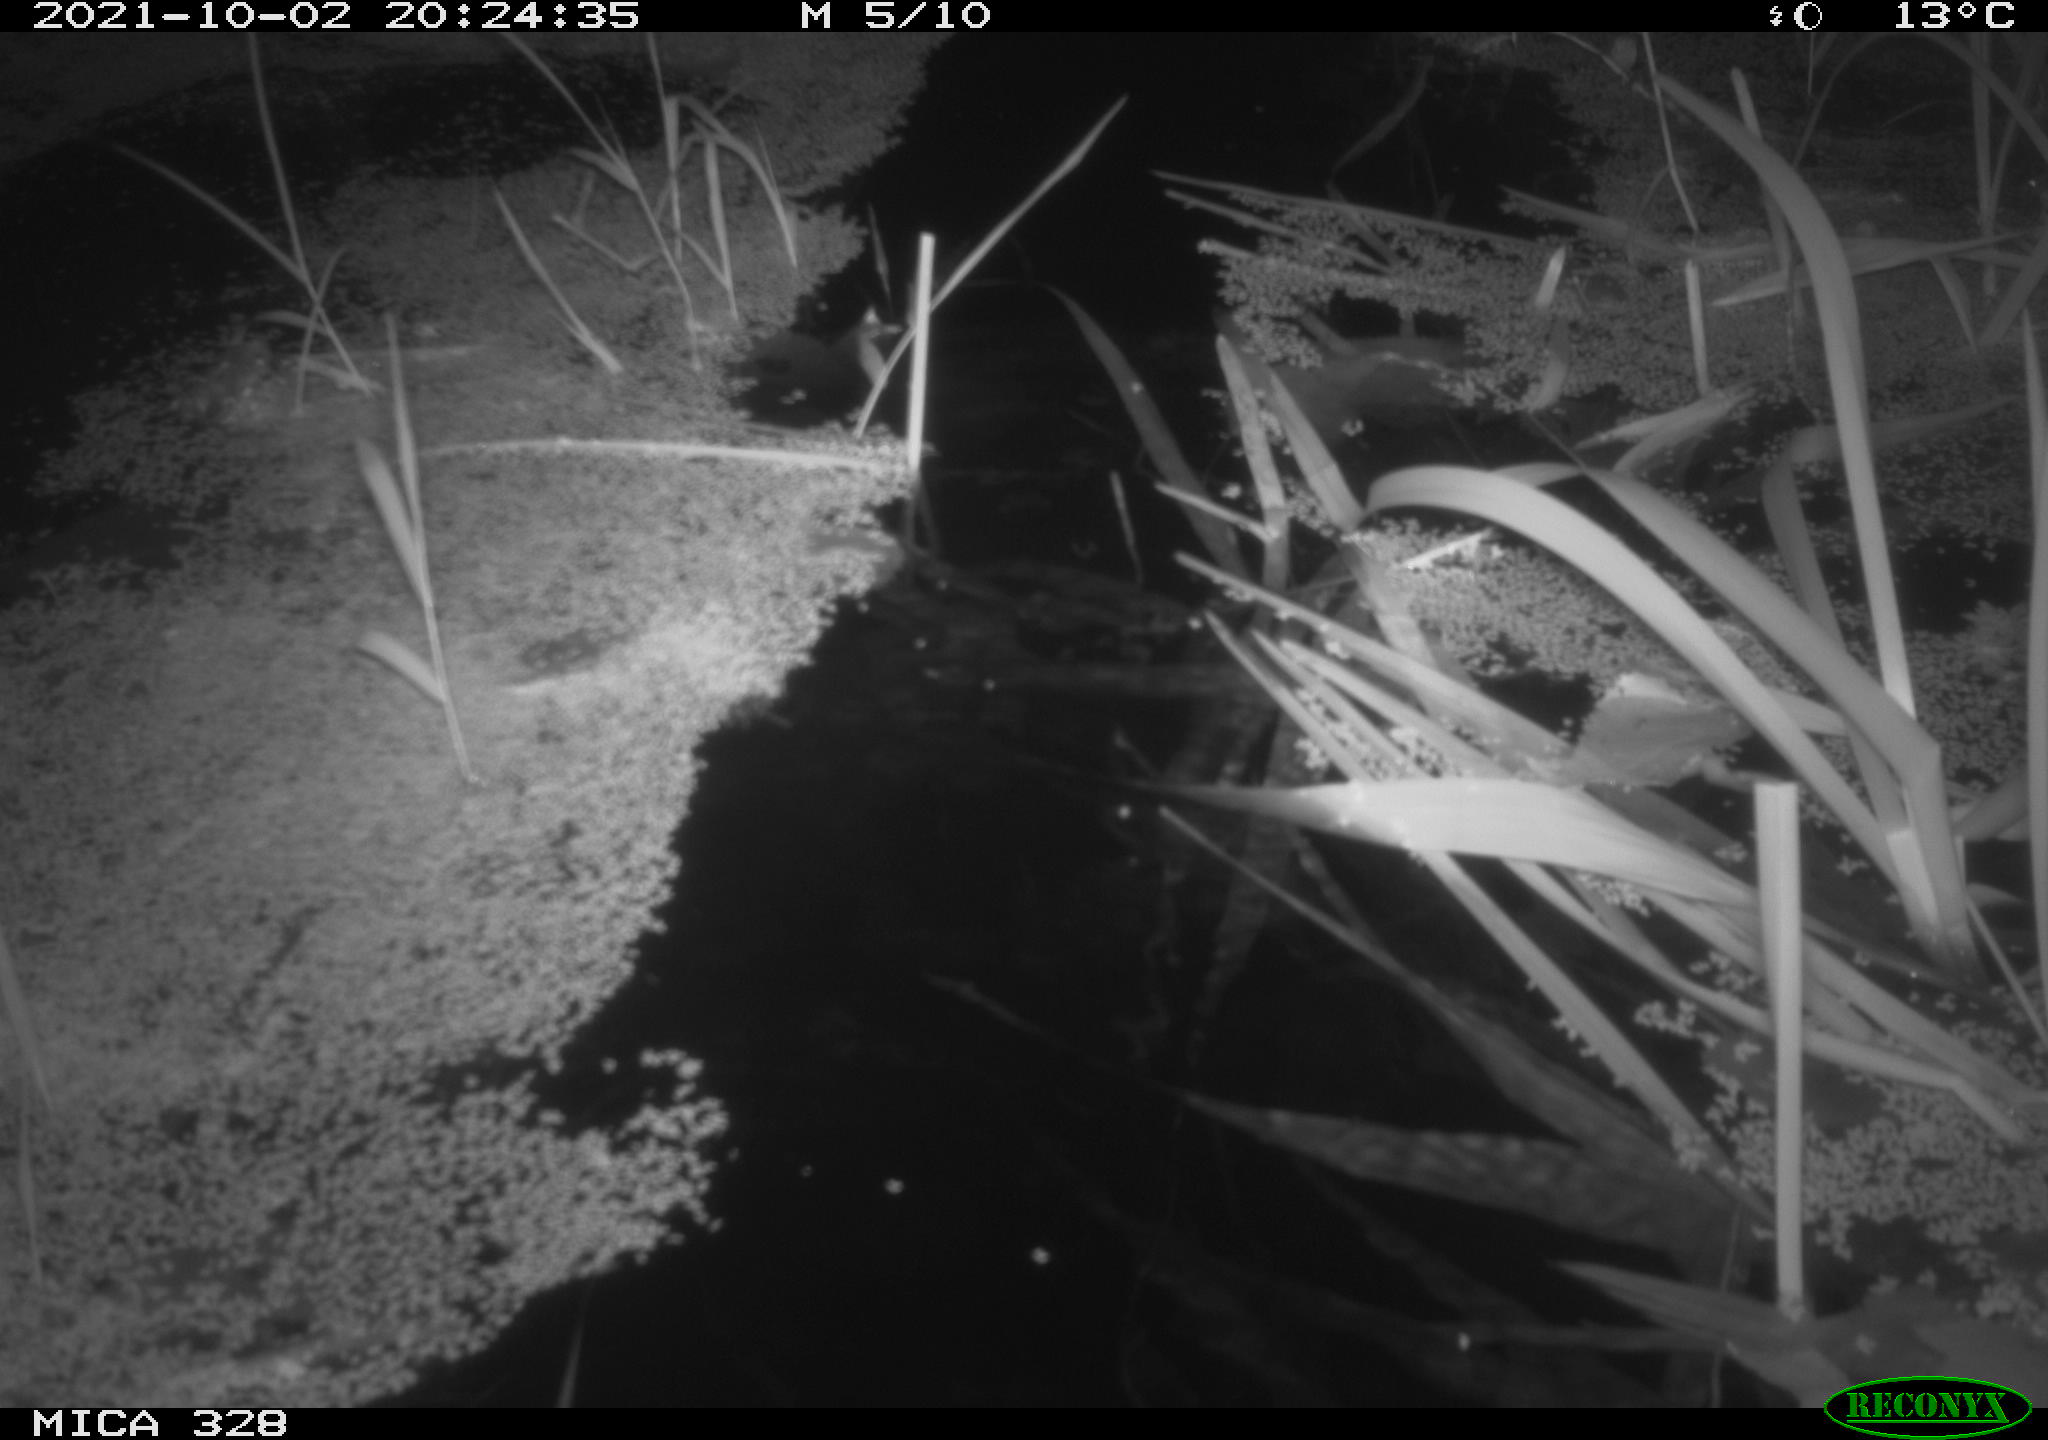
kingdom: Animalia
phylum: Chordata
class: Mammalia
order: Rodentia
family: Cricetidae
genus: Ondatra
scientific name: Ondatra zibethicus
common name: Muskrat
